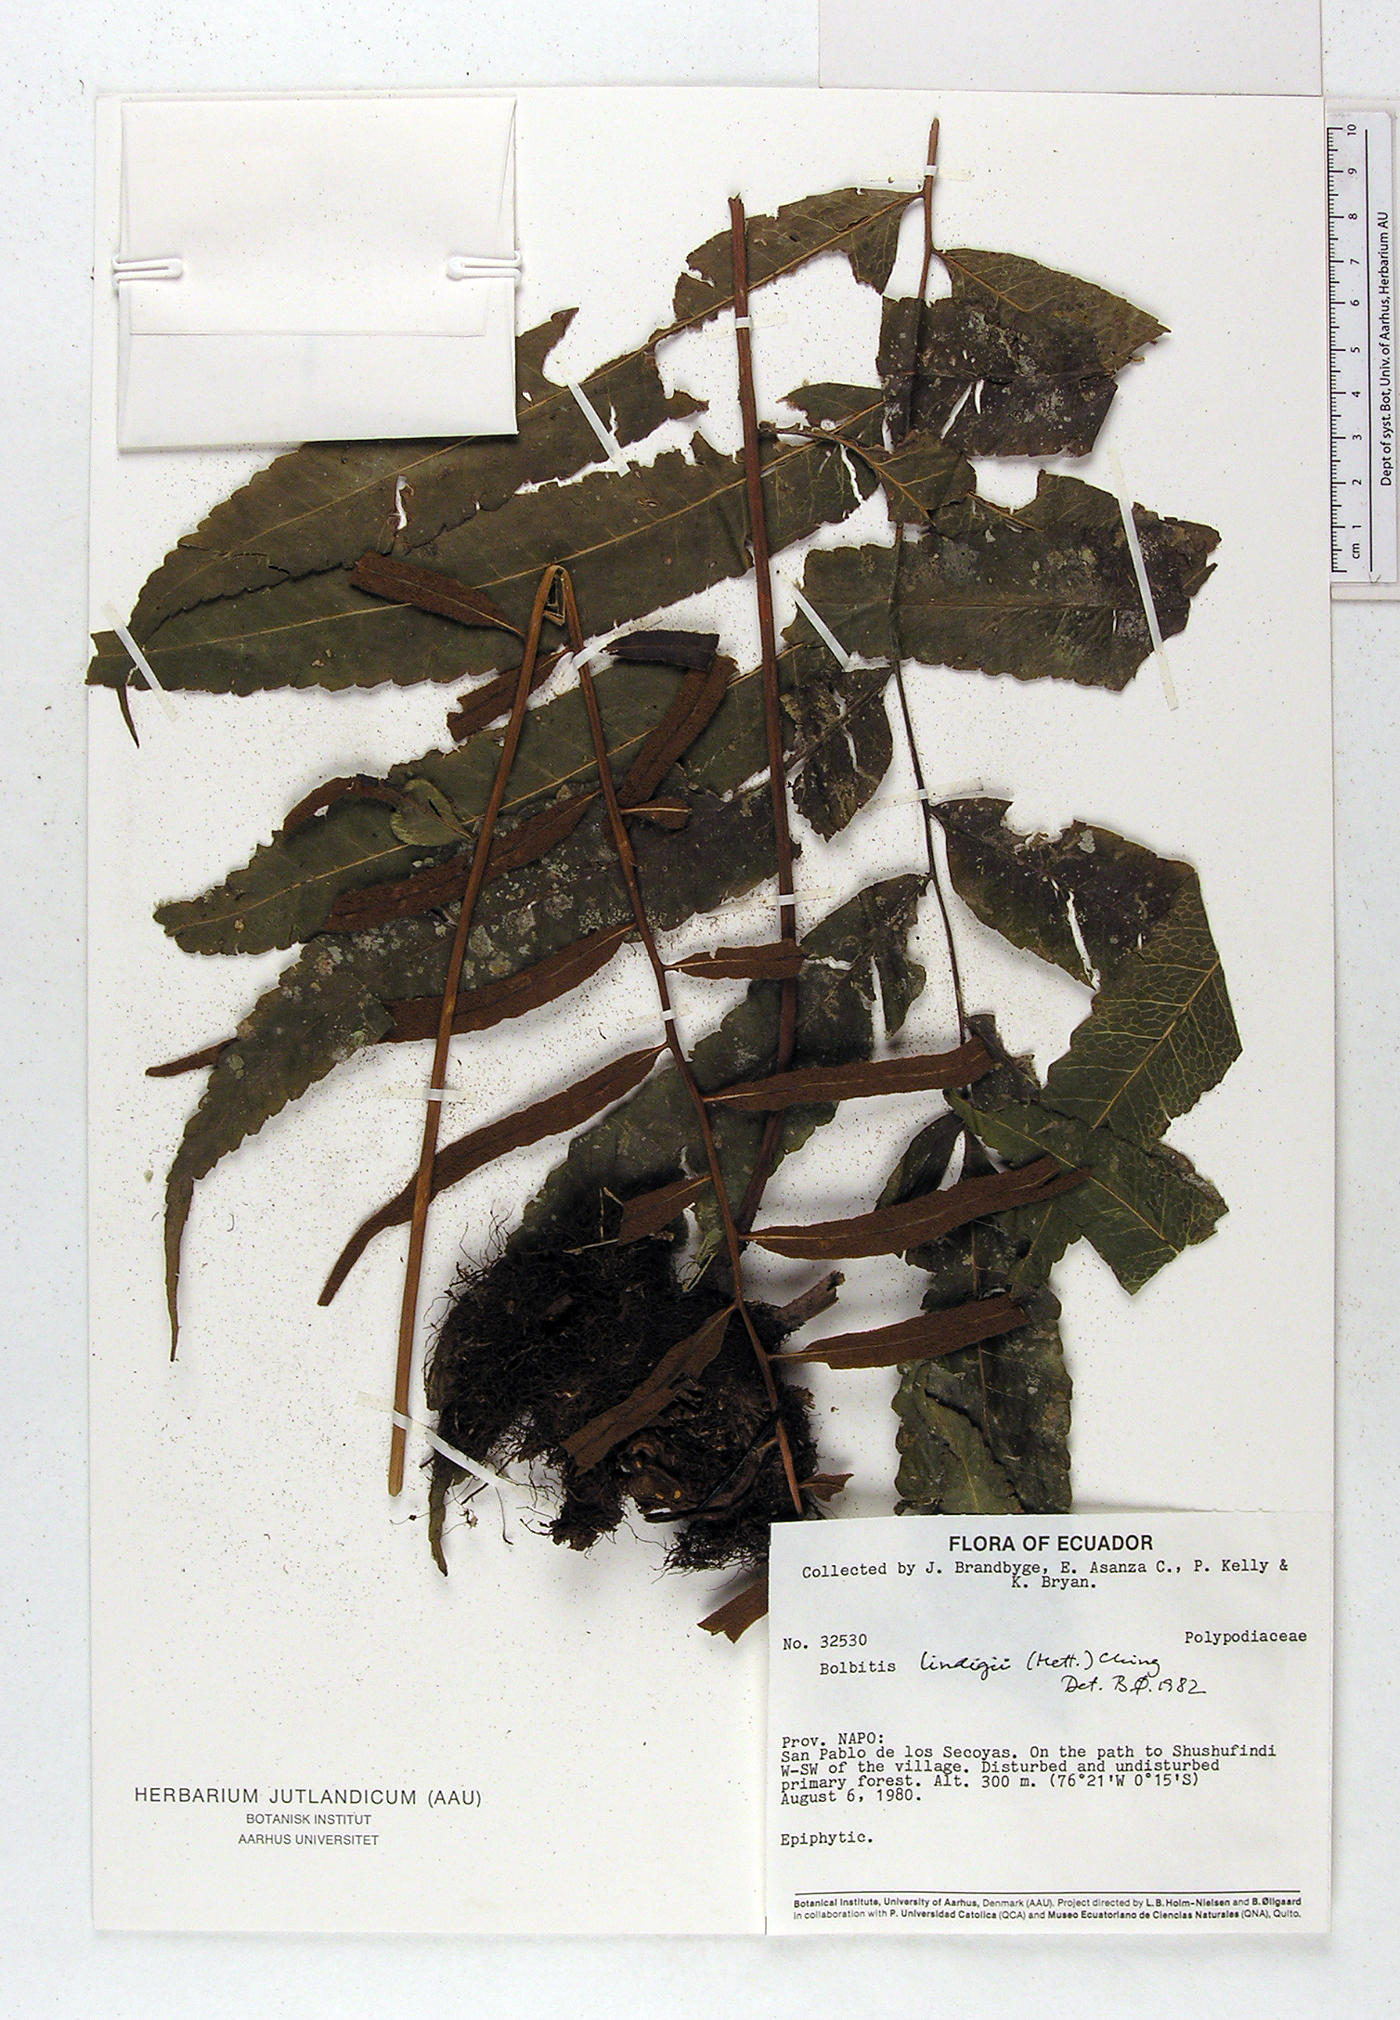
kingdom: Plantae
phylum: Tracheophyta
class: Polypodiopsida
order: Polypodiales
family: Dryopteridaceae
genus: Mickelia
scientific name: Mickelia lindigii
